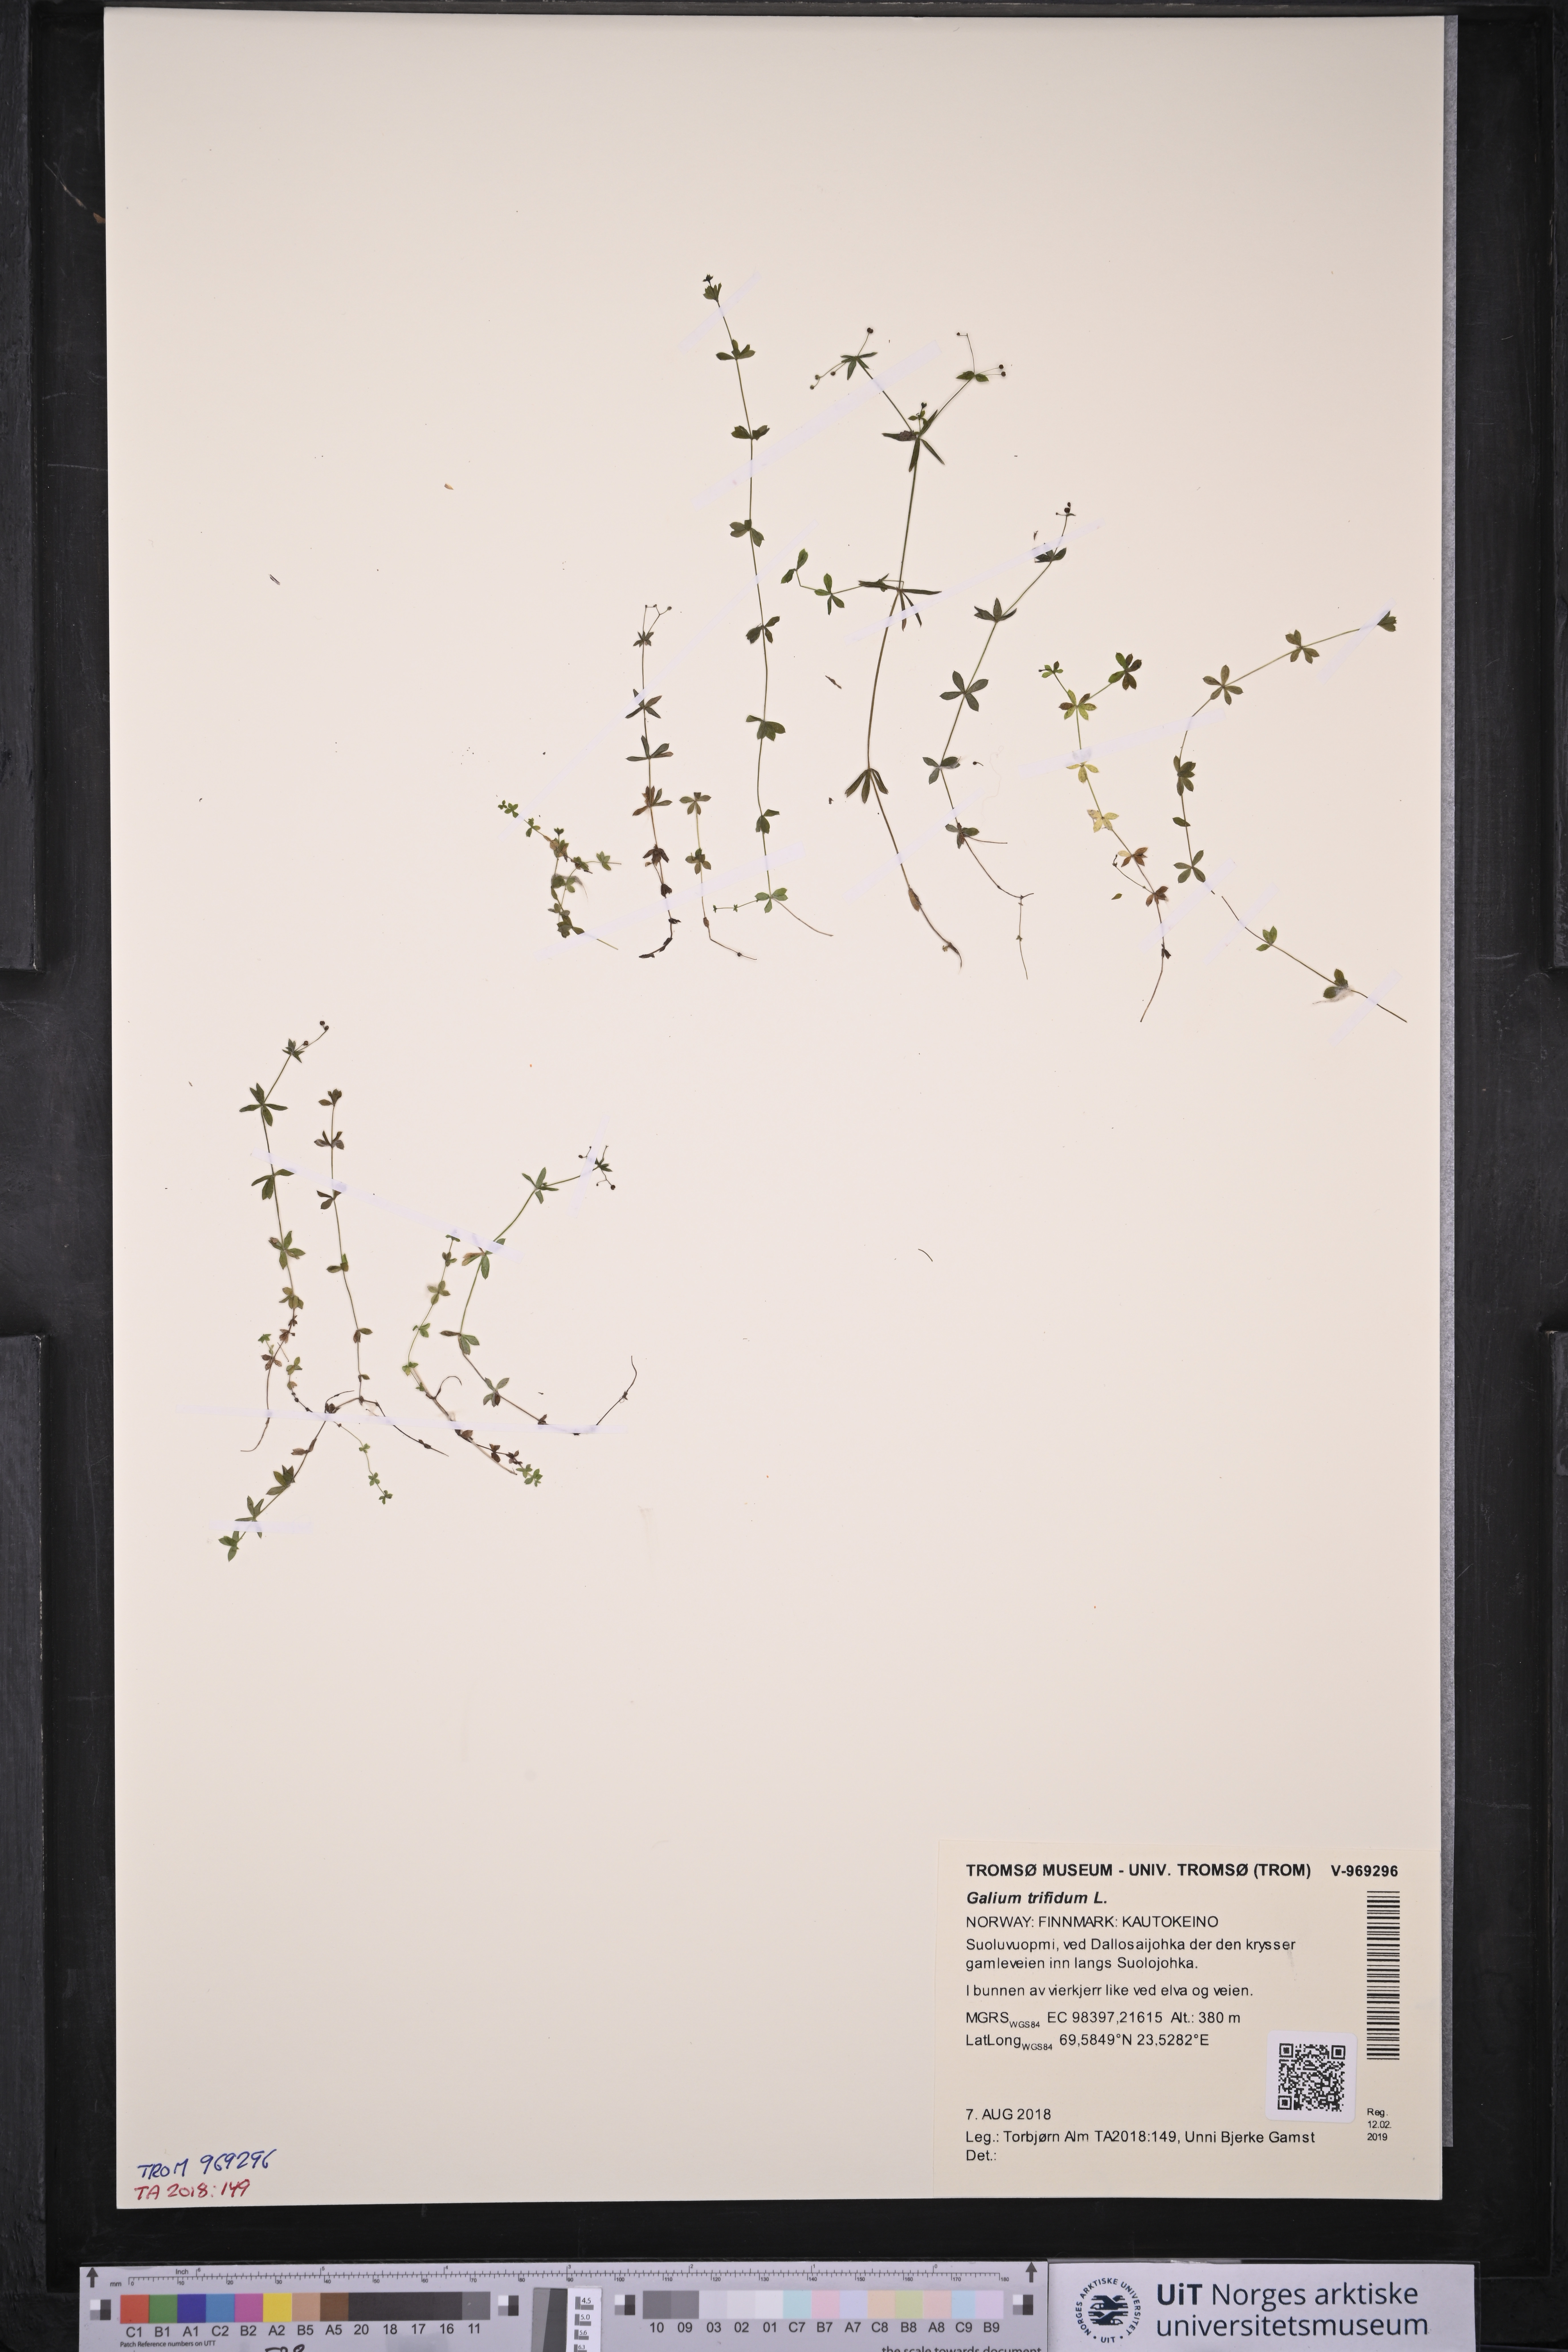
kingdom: Plantae
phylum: Tracheophyta
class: Magnoliopsida
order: Gentianales
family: Rubiaceae
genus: Galium
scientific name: Galium trifidum
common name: Small bedstraw
